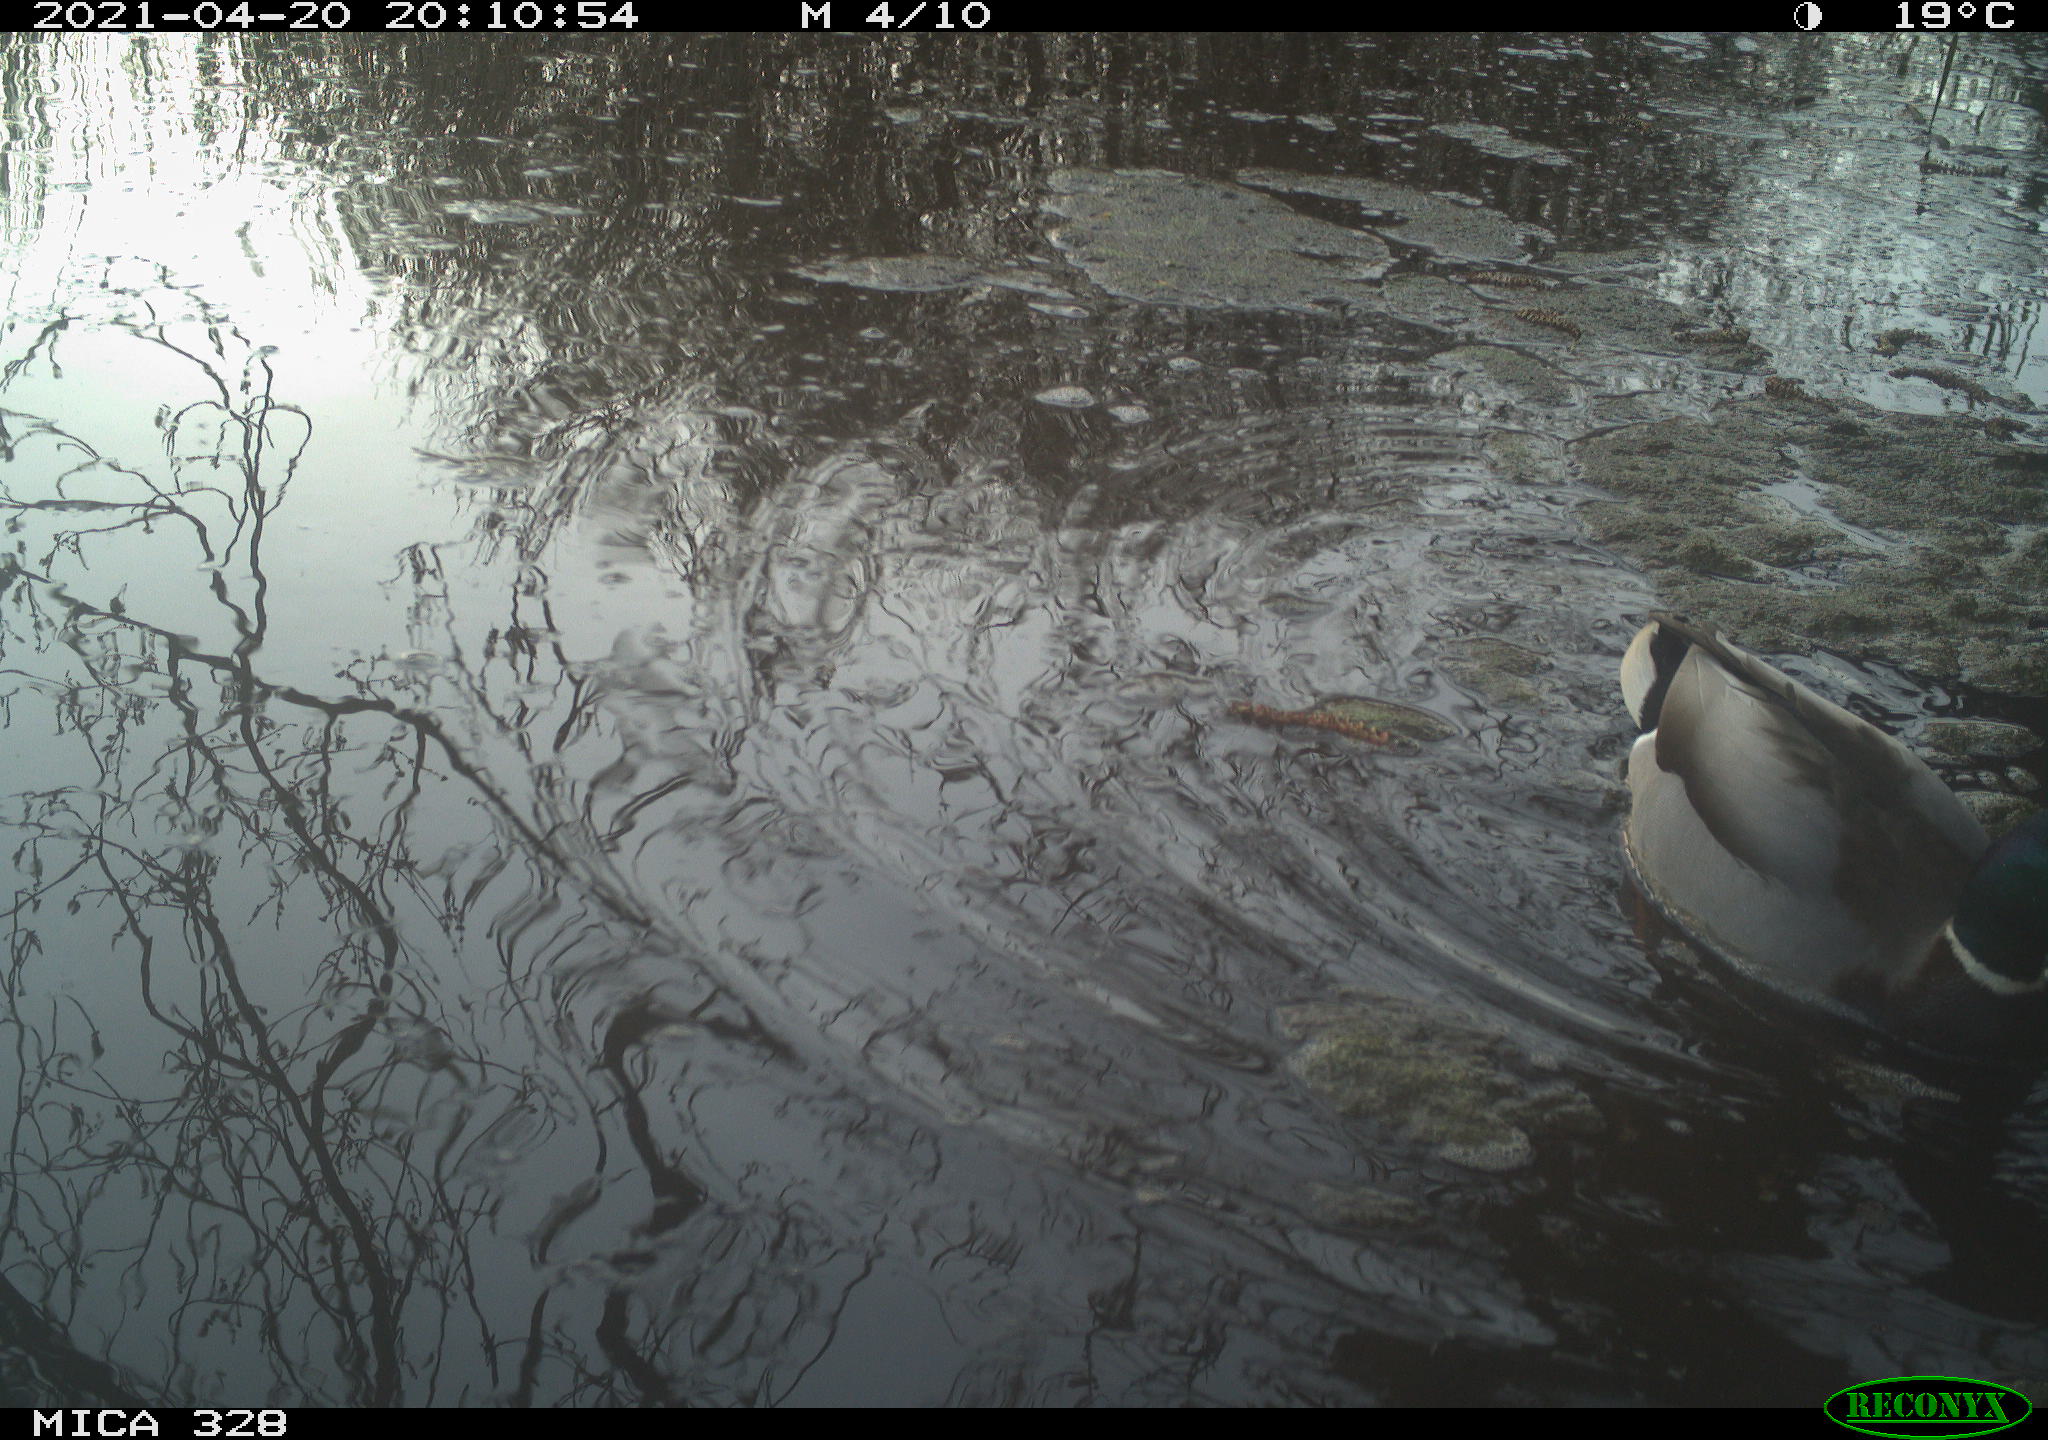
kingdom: Animalia
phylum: Chordata
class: Aves
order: Anseriformes
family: Anatidae
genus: Anas
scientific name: Anas platyrhynchos
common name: Mallard
